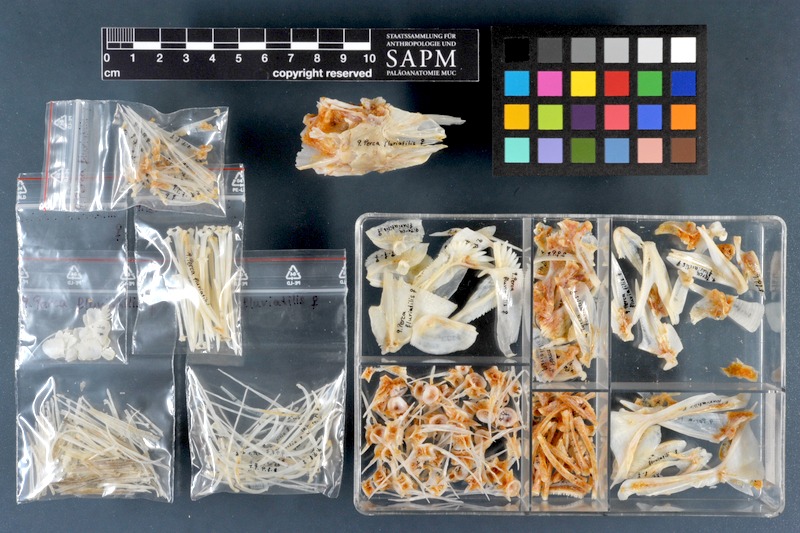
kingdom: Animalia
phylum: Chordata
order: Perciformes
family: Percidae
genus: Perca
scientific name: Perca fluviatilis
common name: Perch
